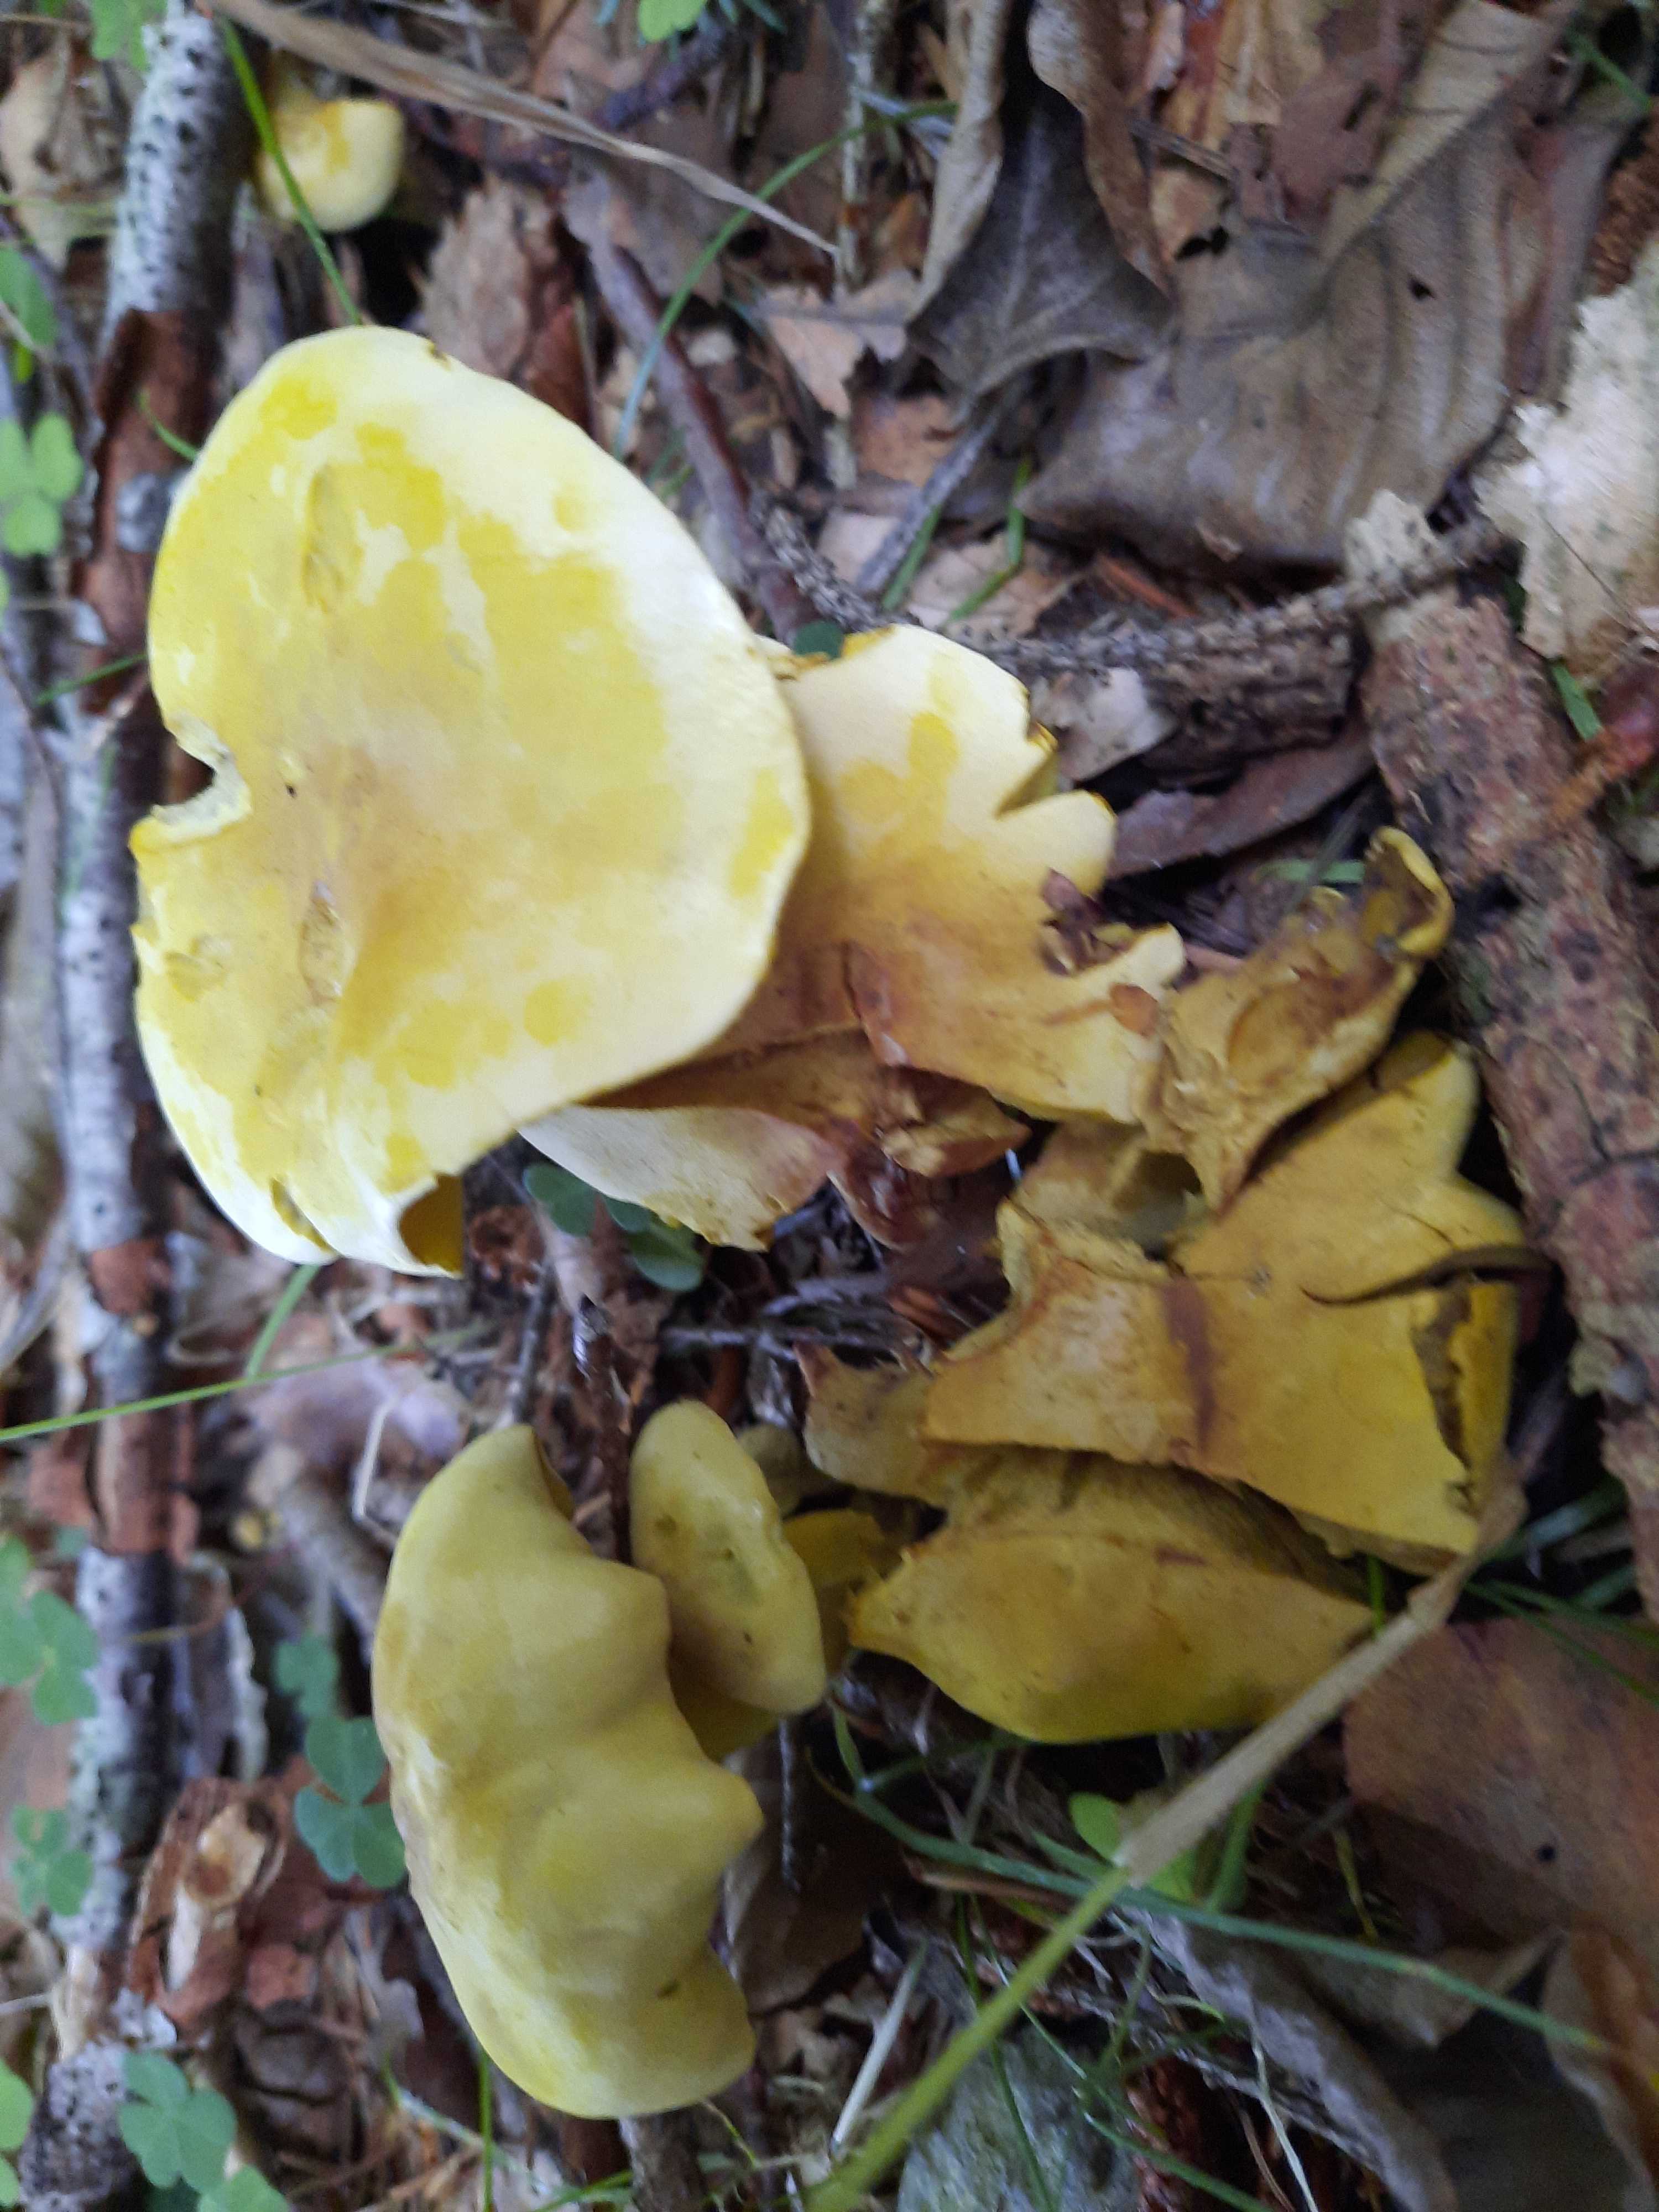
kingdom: Fungi
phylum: Basidiomycota
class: Agaricomycetes
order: Agaricales
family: Tricholomataceae
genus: Tricholoma
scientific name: Tricholoma sulphureum
